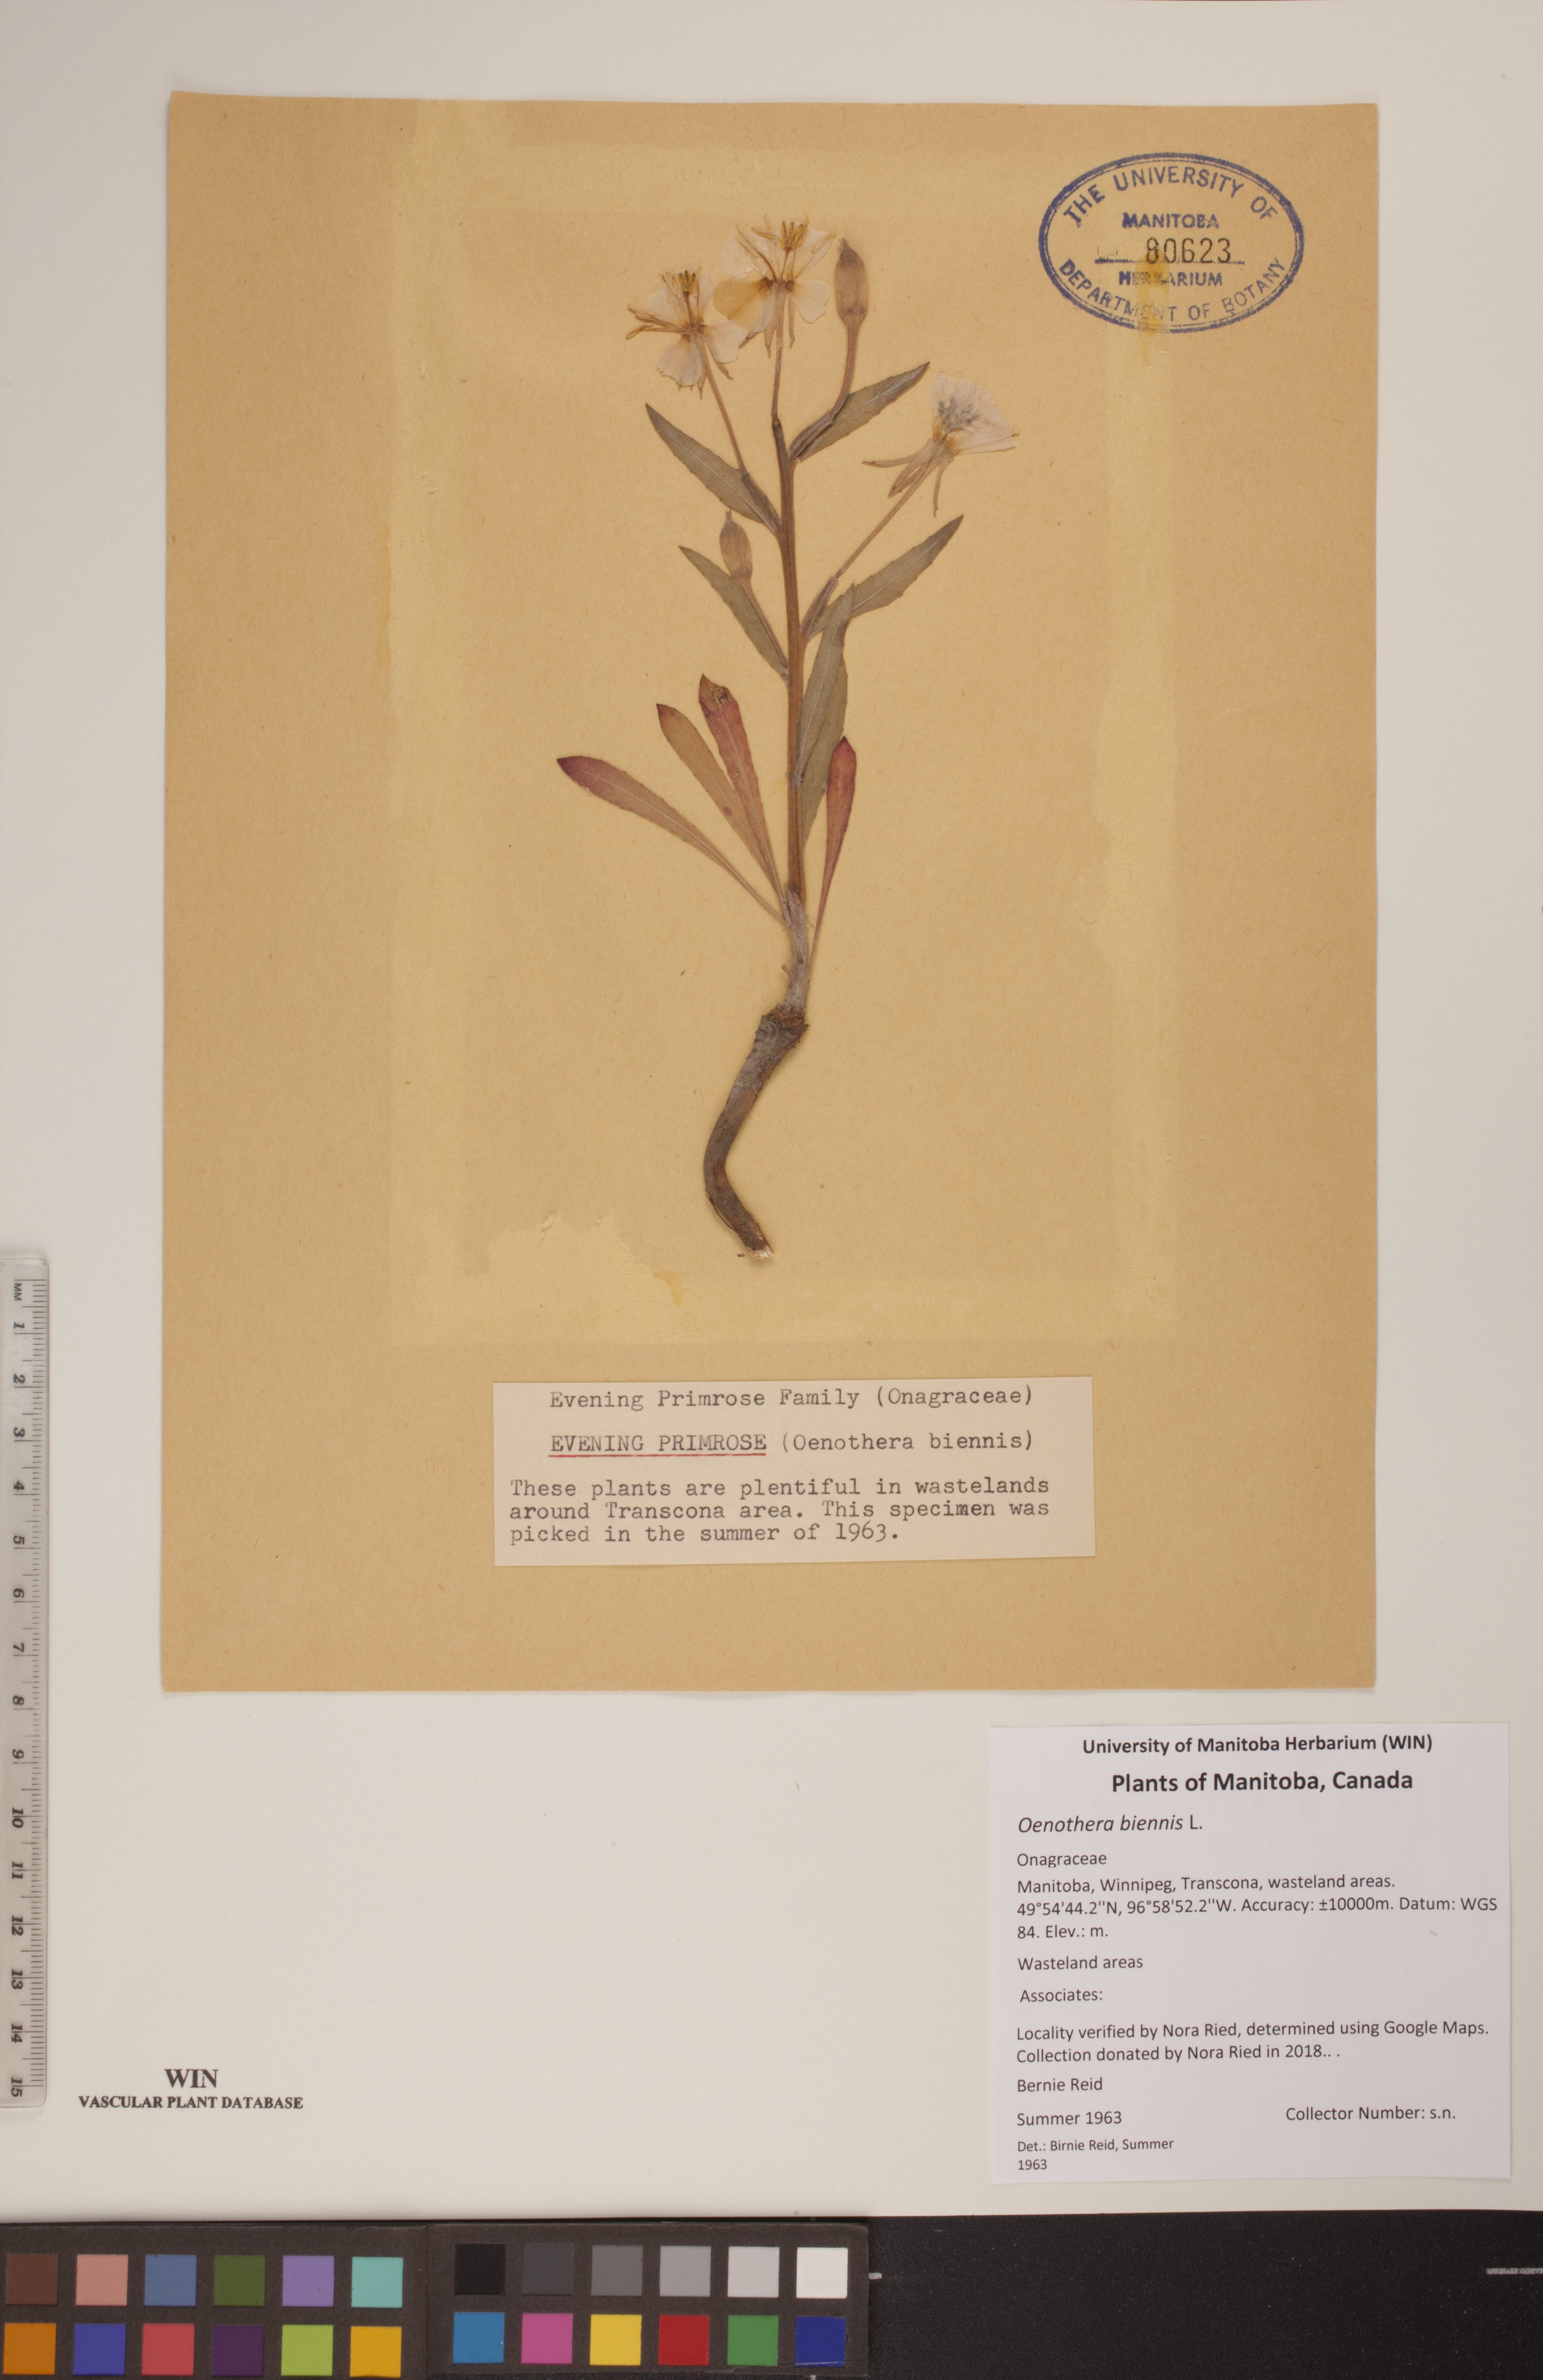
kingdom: Plantae
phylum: Tracheophyta
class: Magnoliopsida
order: Myrtales
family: Onagraceae
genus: Oenothera
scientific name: Oenothera biennis
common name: Common evening-primrose
